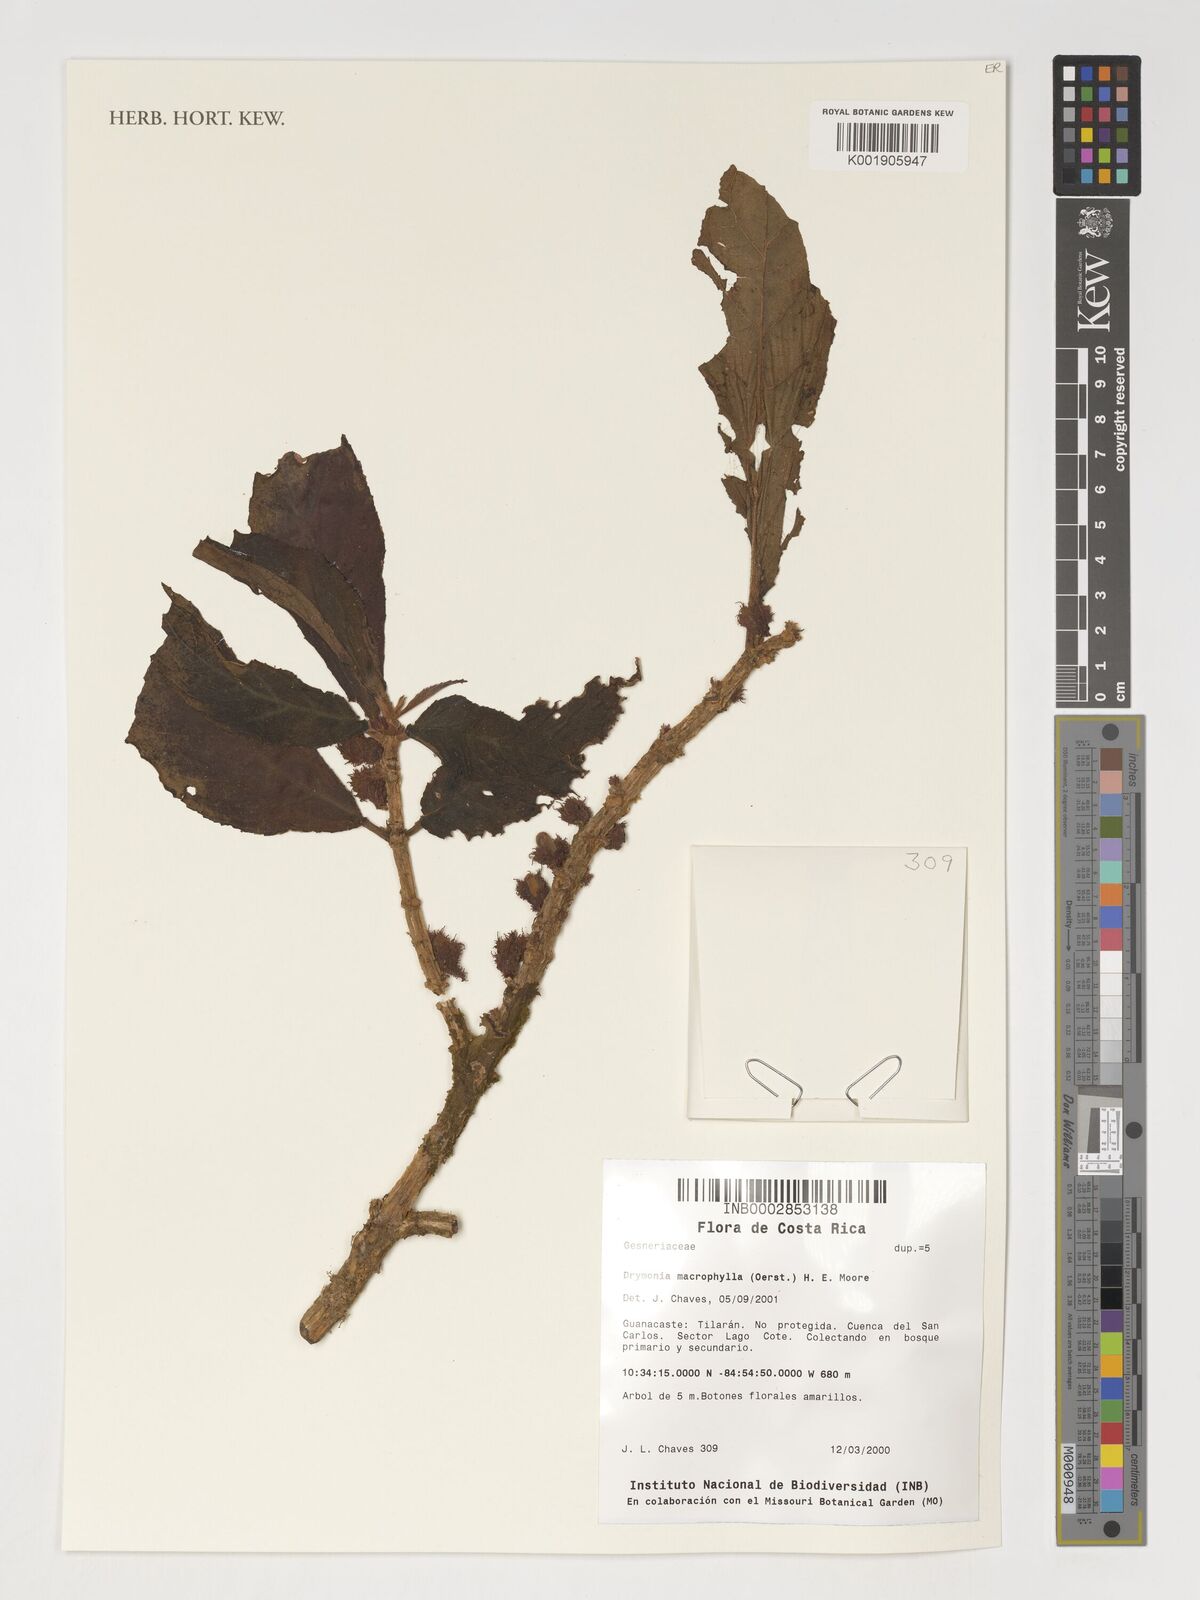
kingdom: Plantae
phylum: Tracheophyta
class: Magnoliopsida
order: Lamiales
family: Gesneriaceae
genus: Drymonia
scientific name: Drymonia macrophylla
